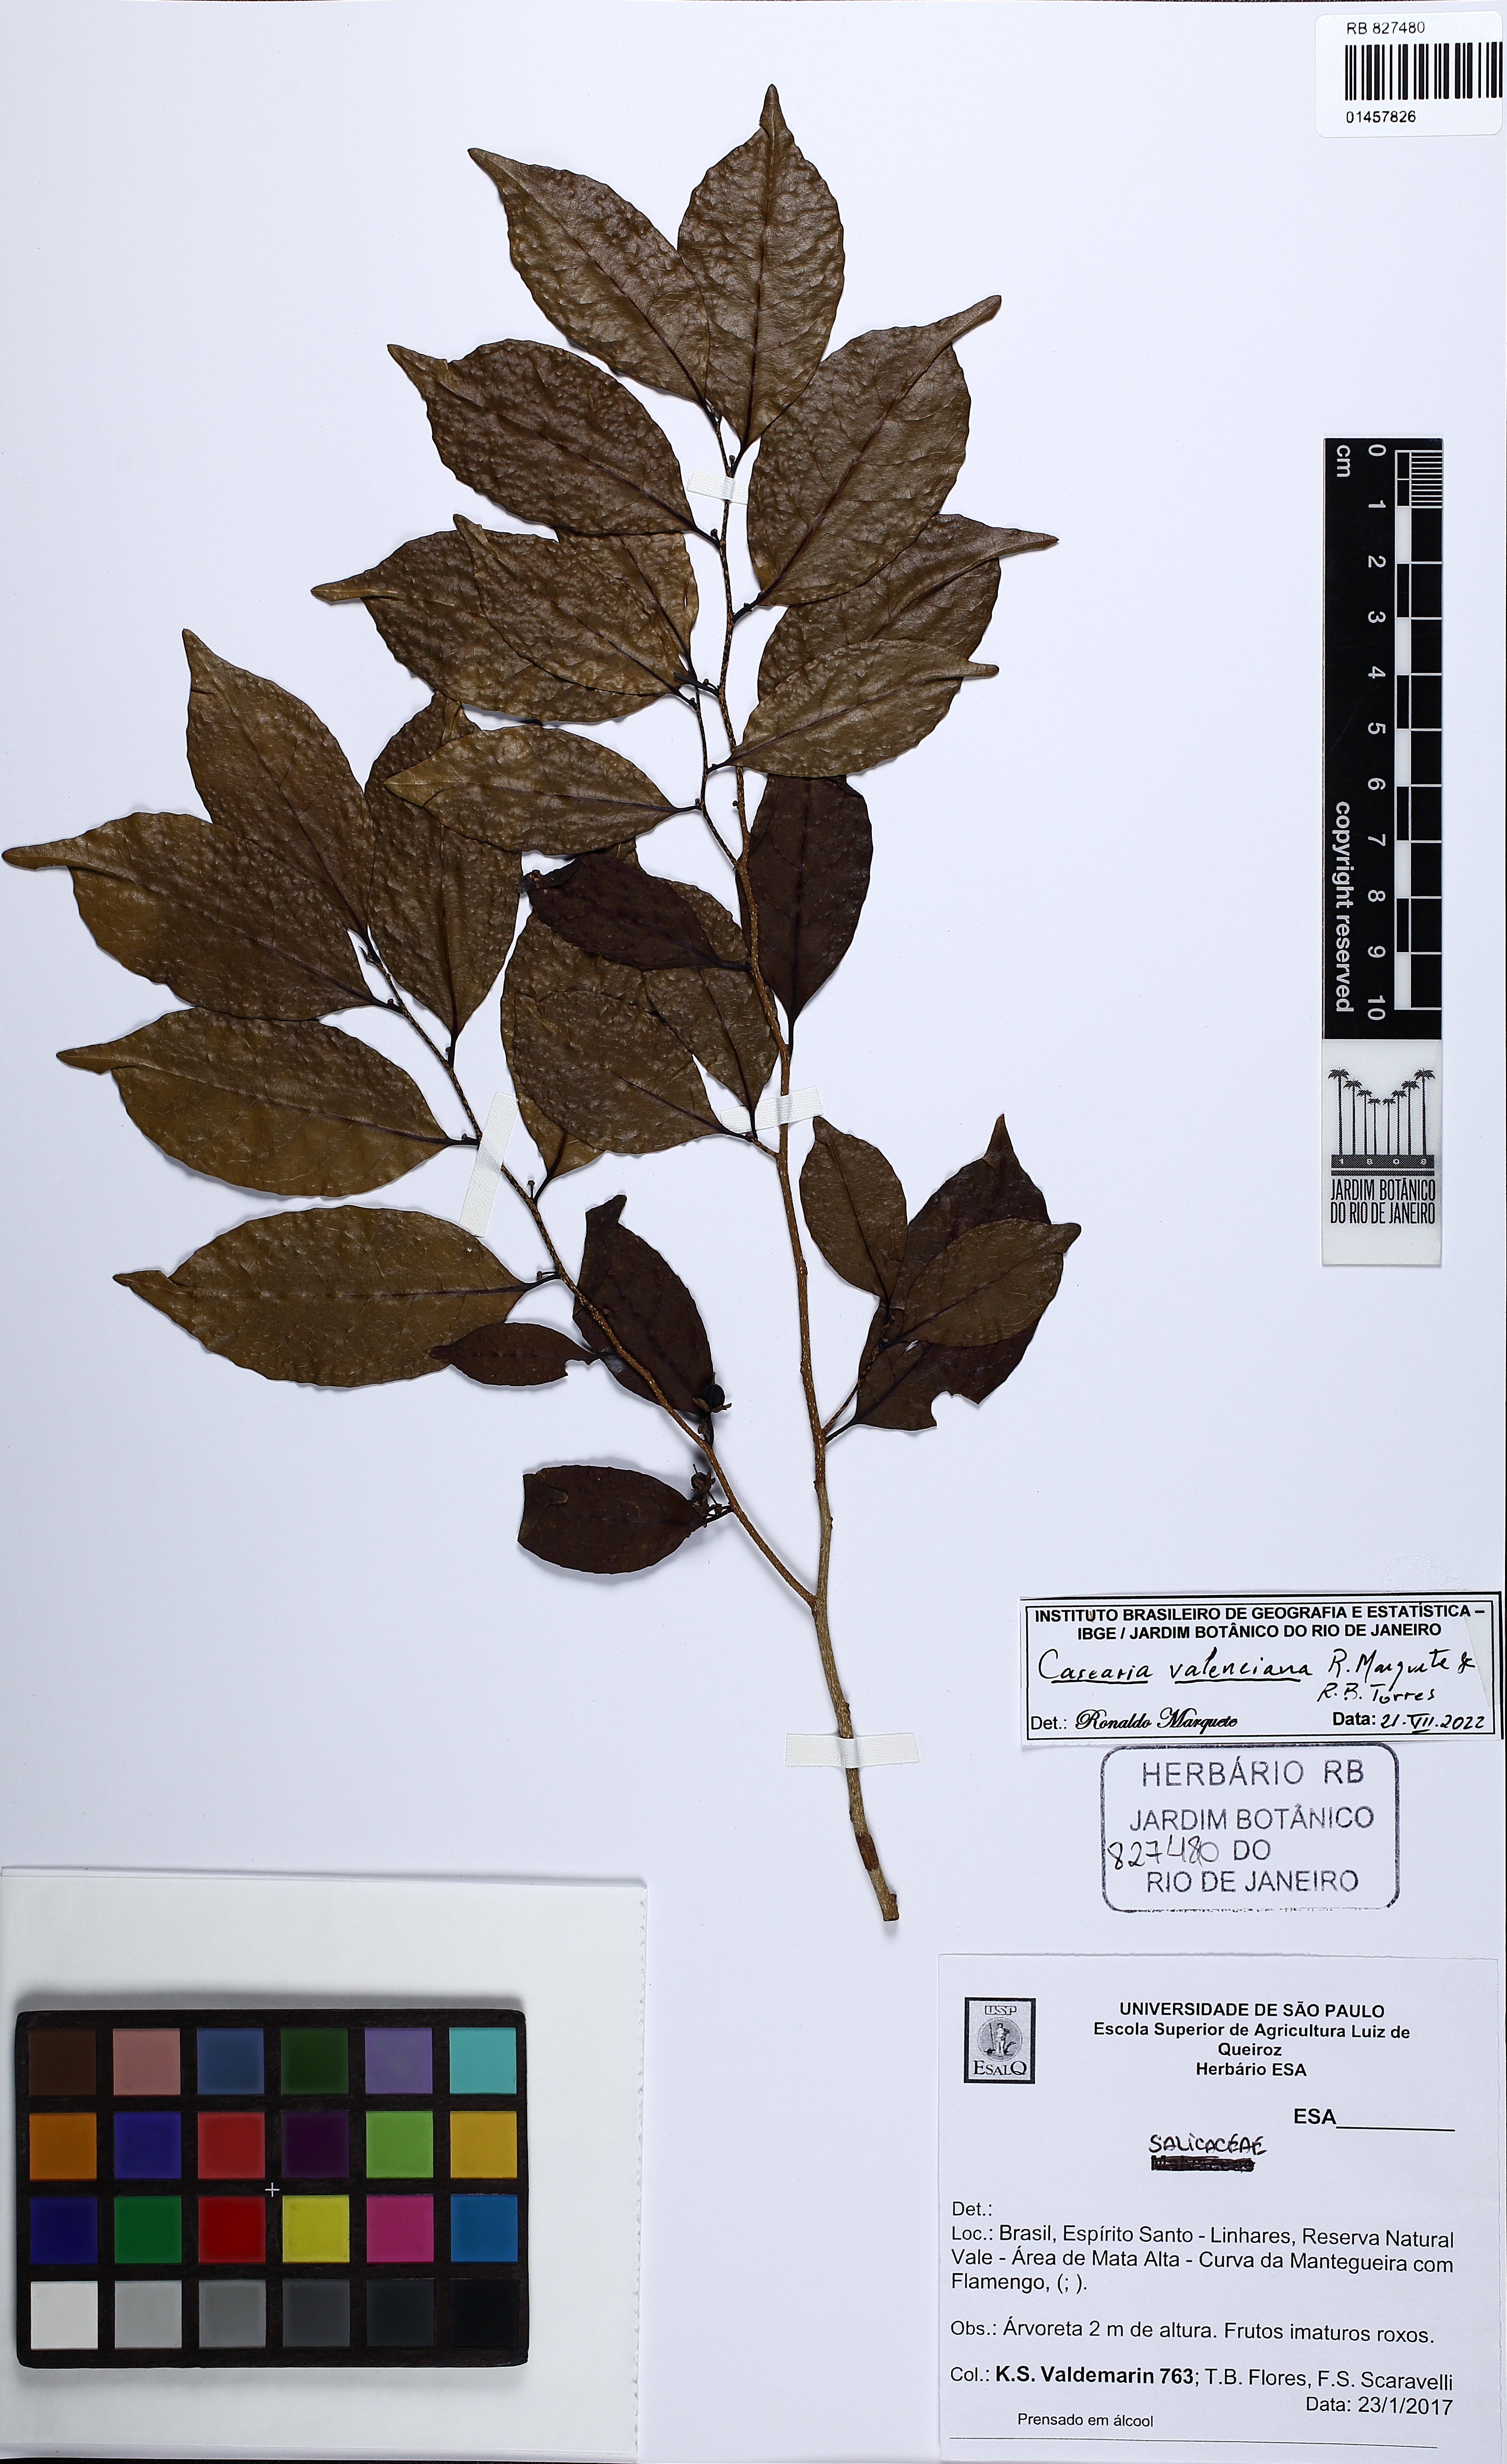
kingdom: Plantae
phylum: Tracheophyta
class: Magnoliopsida
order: Malpighiales
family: Salicaceae
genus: Casearia
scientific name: Casearia valenciana
